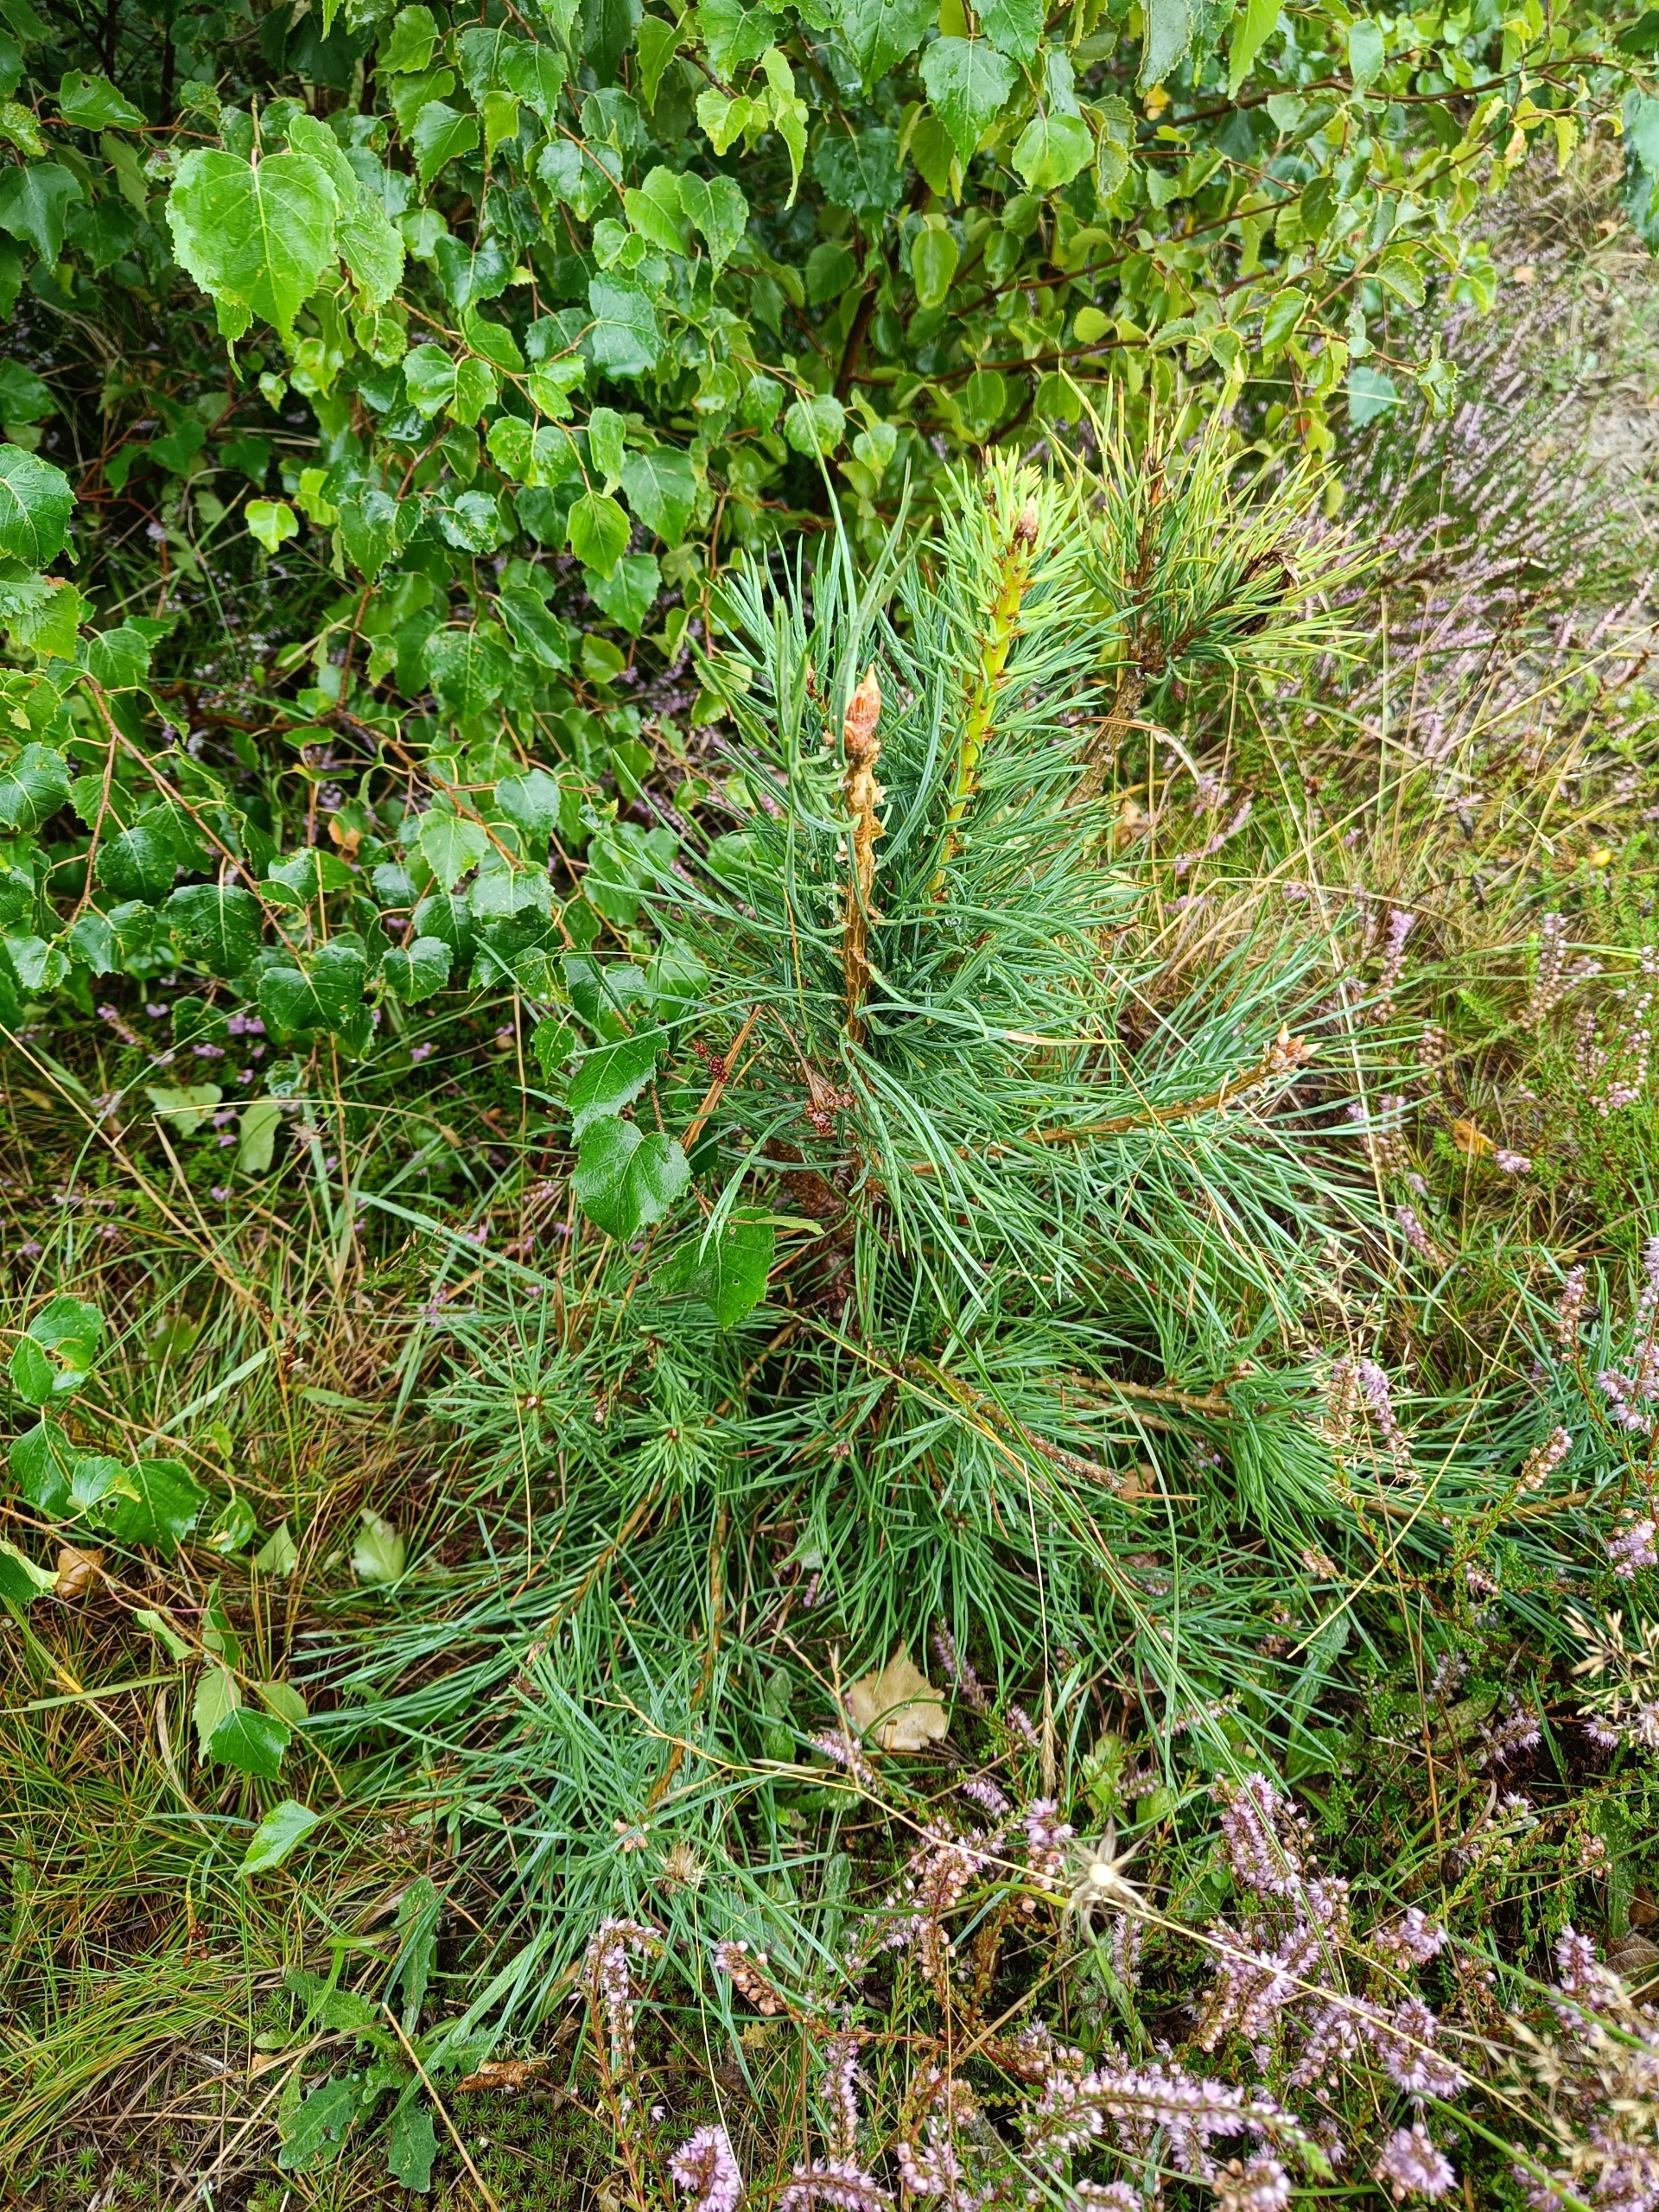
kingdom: Plantae
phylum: Tracheophyta
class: Pinopsida
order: Pinales
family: Pinaceae
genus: Pinus
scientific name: Pinus sylvestris
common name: Skov-fyr
